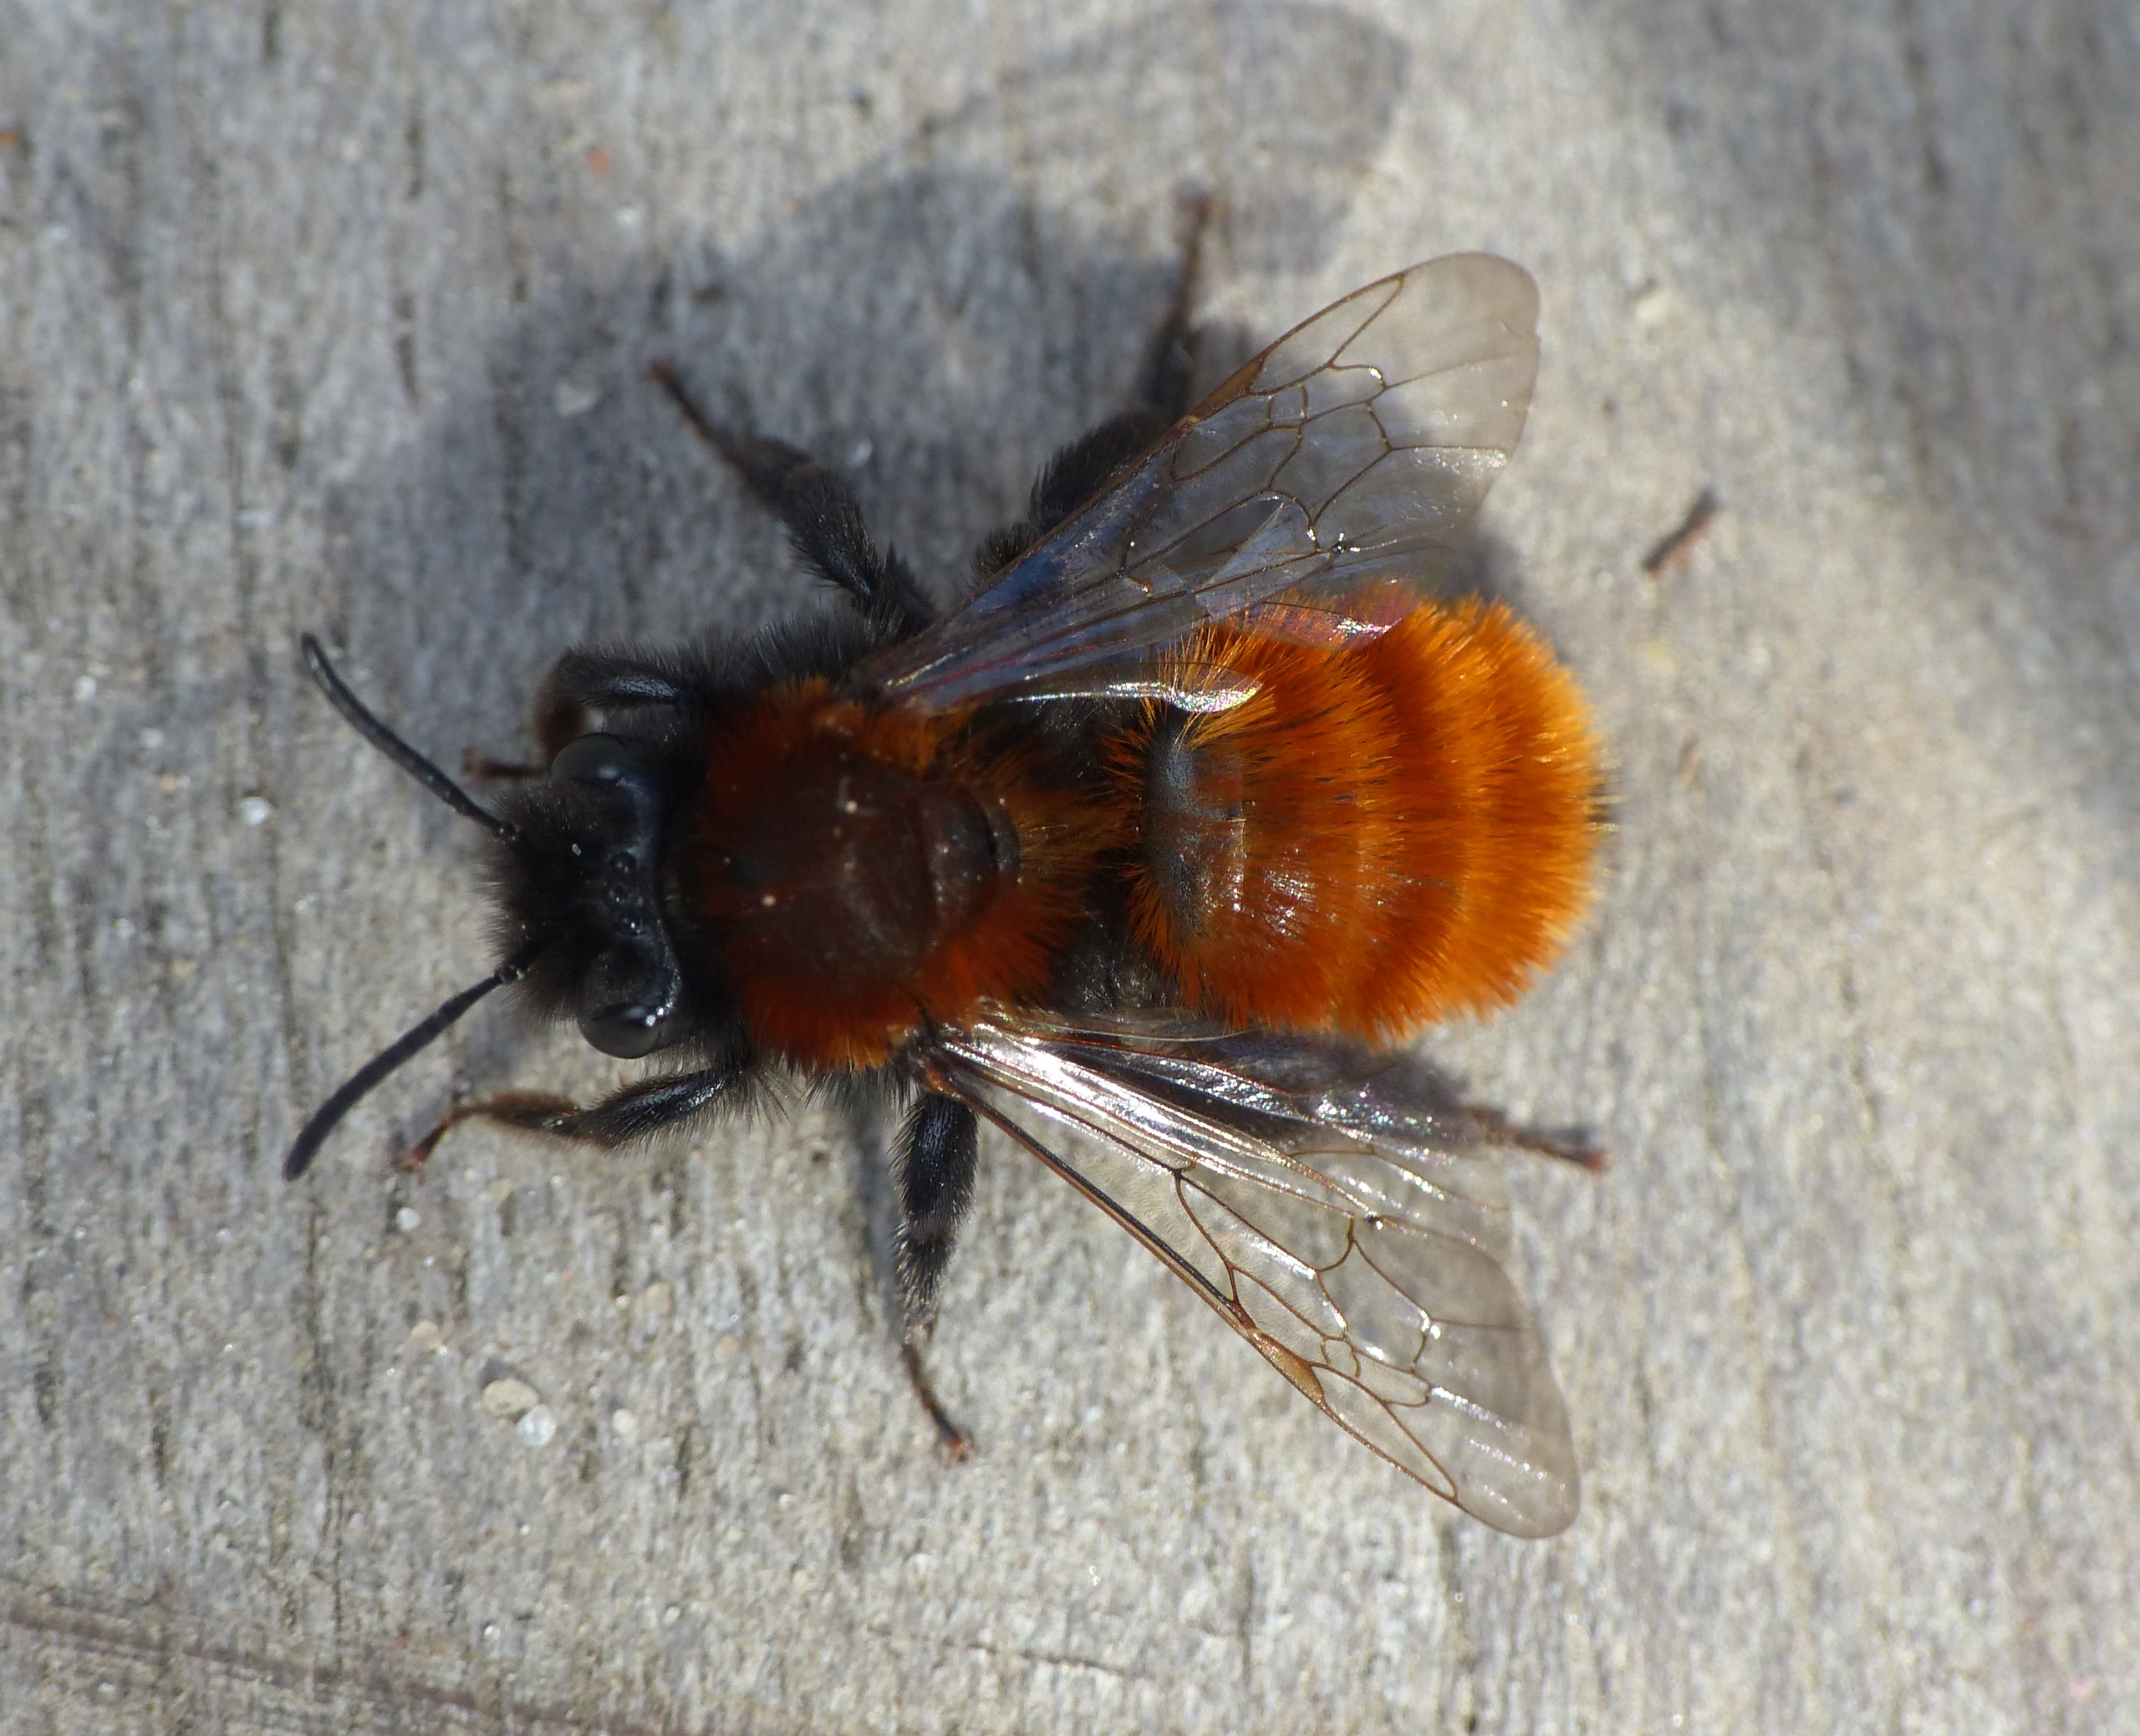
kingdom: Animalia
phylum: Arthropoda
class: Insecta
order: Hymenoptera
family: Andrenidae
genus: Andrena
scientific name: Andrena fulva
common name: Rødpelset jordbi
